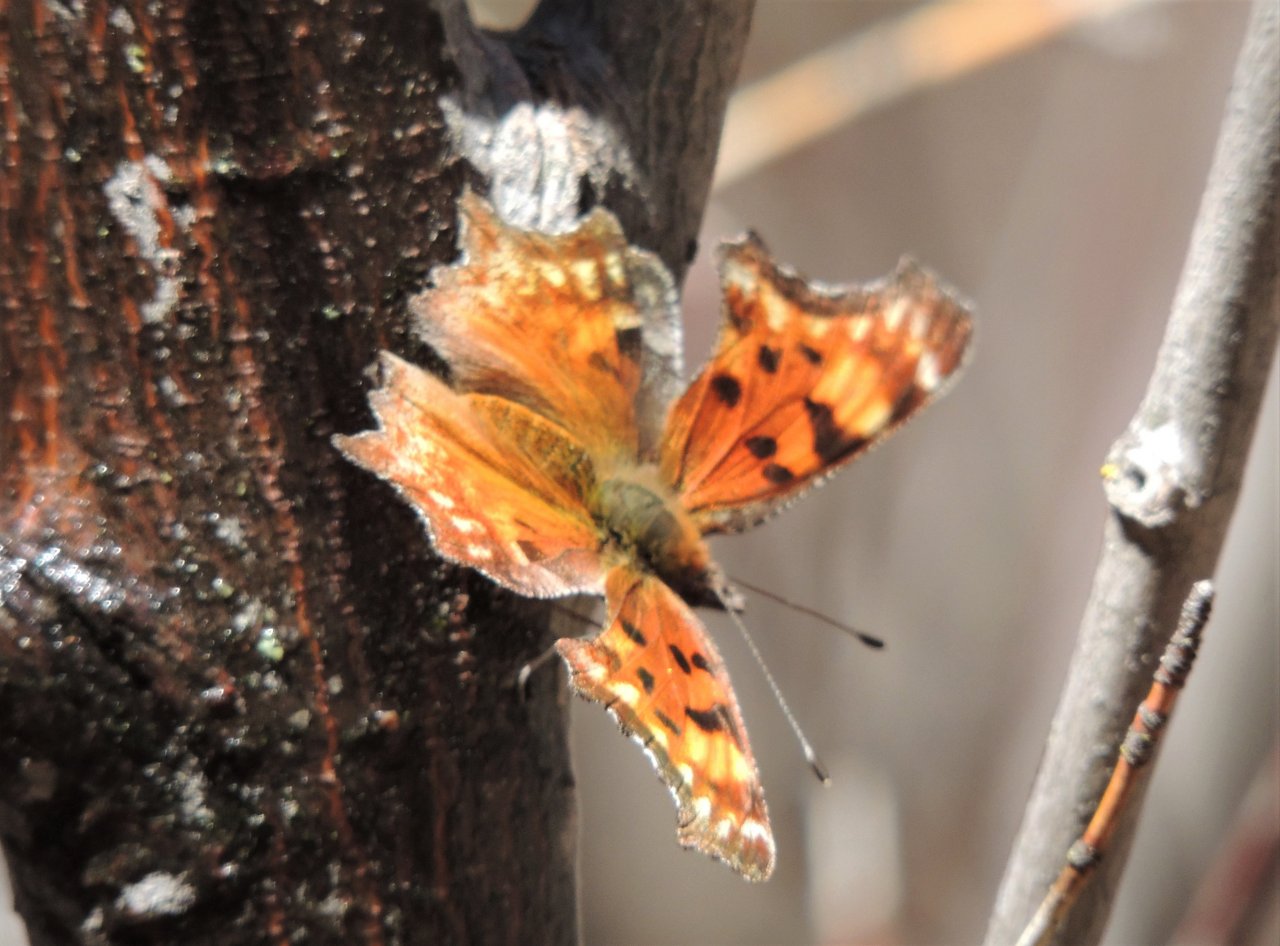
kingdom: Animalia
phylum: Arthropoda
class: Insecta
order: Lepidoptera
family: Nymphalidae
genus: Polygonia
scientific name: Polygonia gracilis
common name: Hoary Comma
